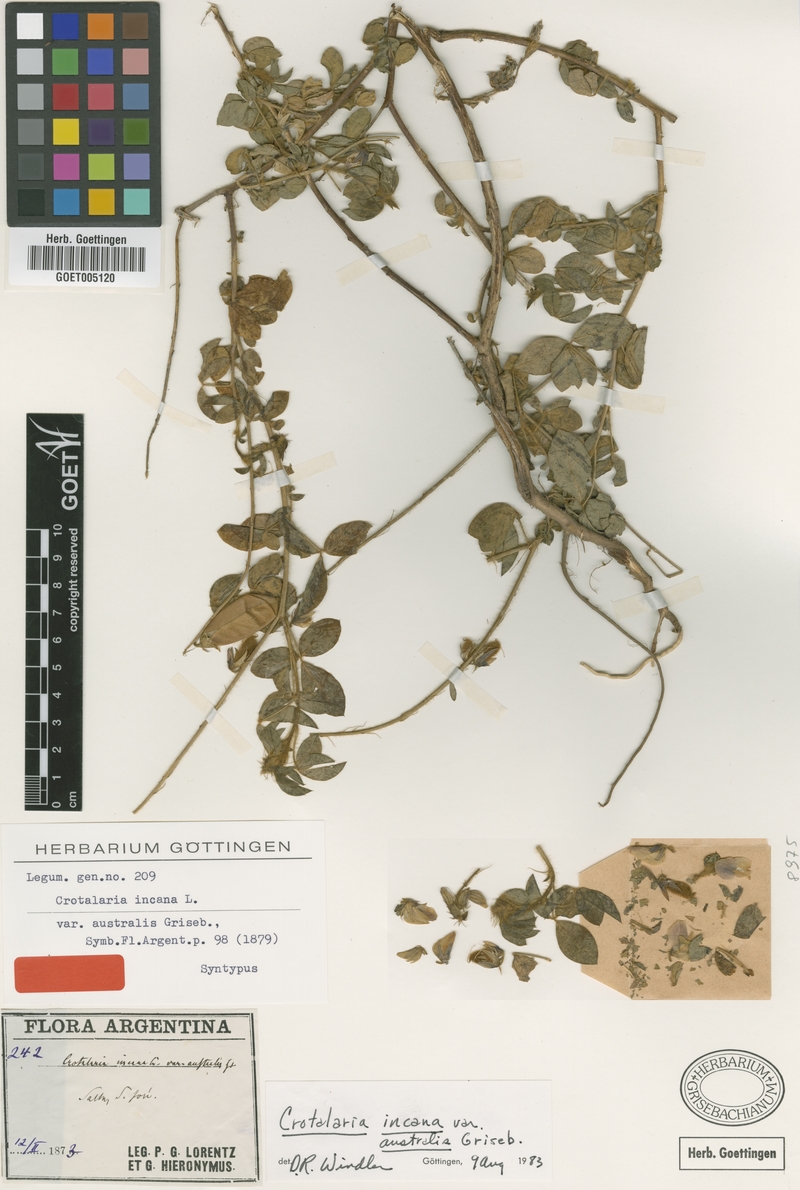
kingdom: Plantae
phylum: Tracheophyta
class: Magnoliopsida
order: Fabales
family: Fabaceae
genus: Crotalaria
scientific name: Crotalaria chaco-serranensis
